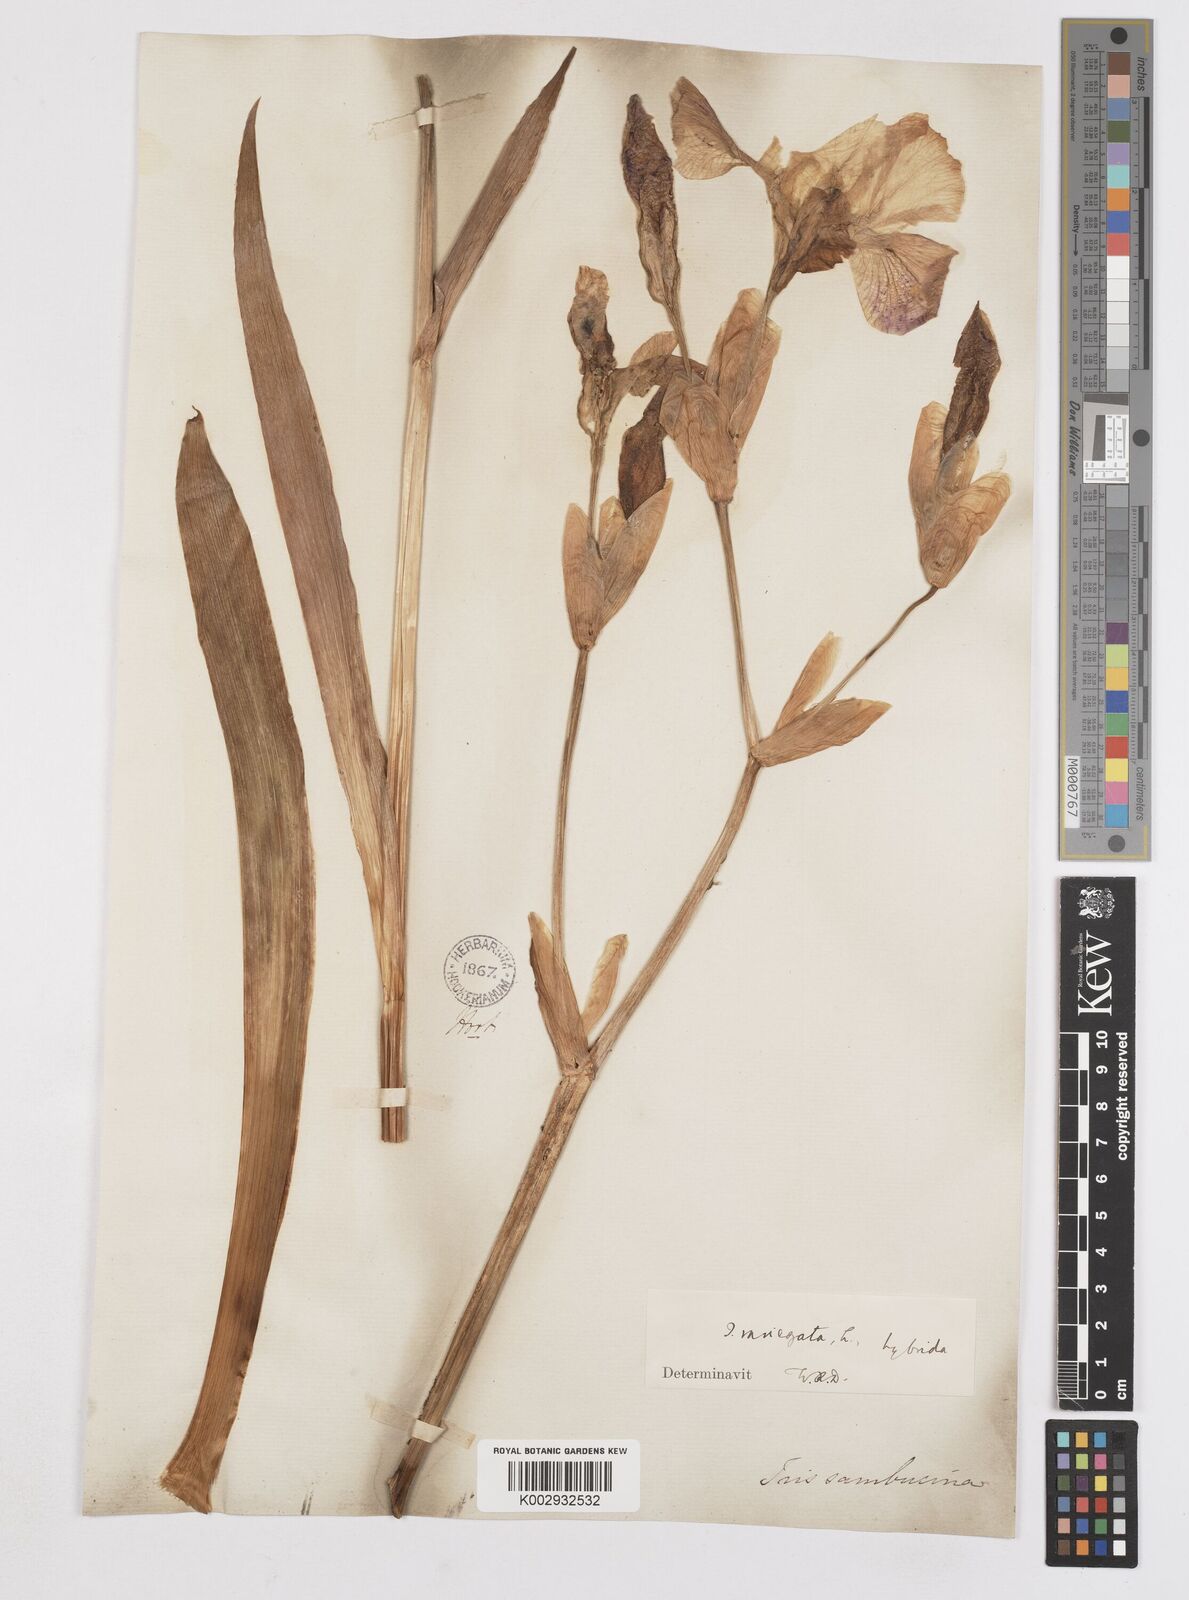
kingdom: Plantae
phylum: Tracheophyta
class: Liliopsida
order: Asparagales
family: Iridaceae
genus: Iris
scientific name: Iris variegata
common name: Hungarian iris
